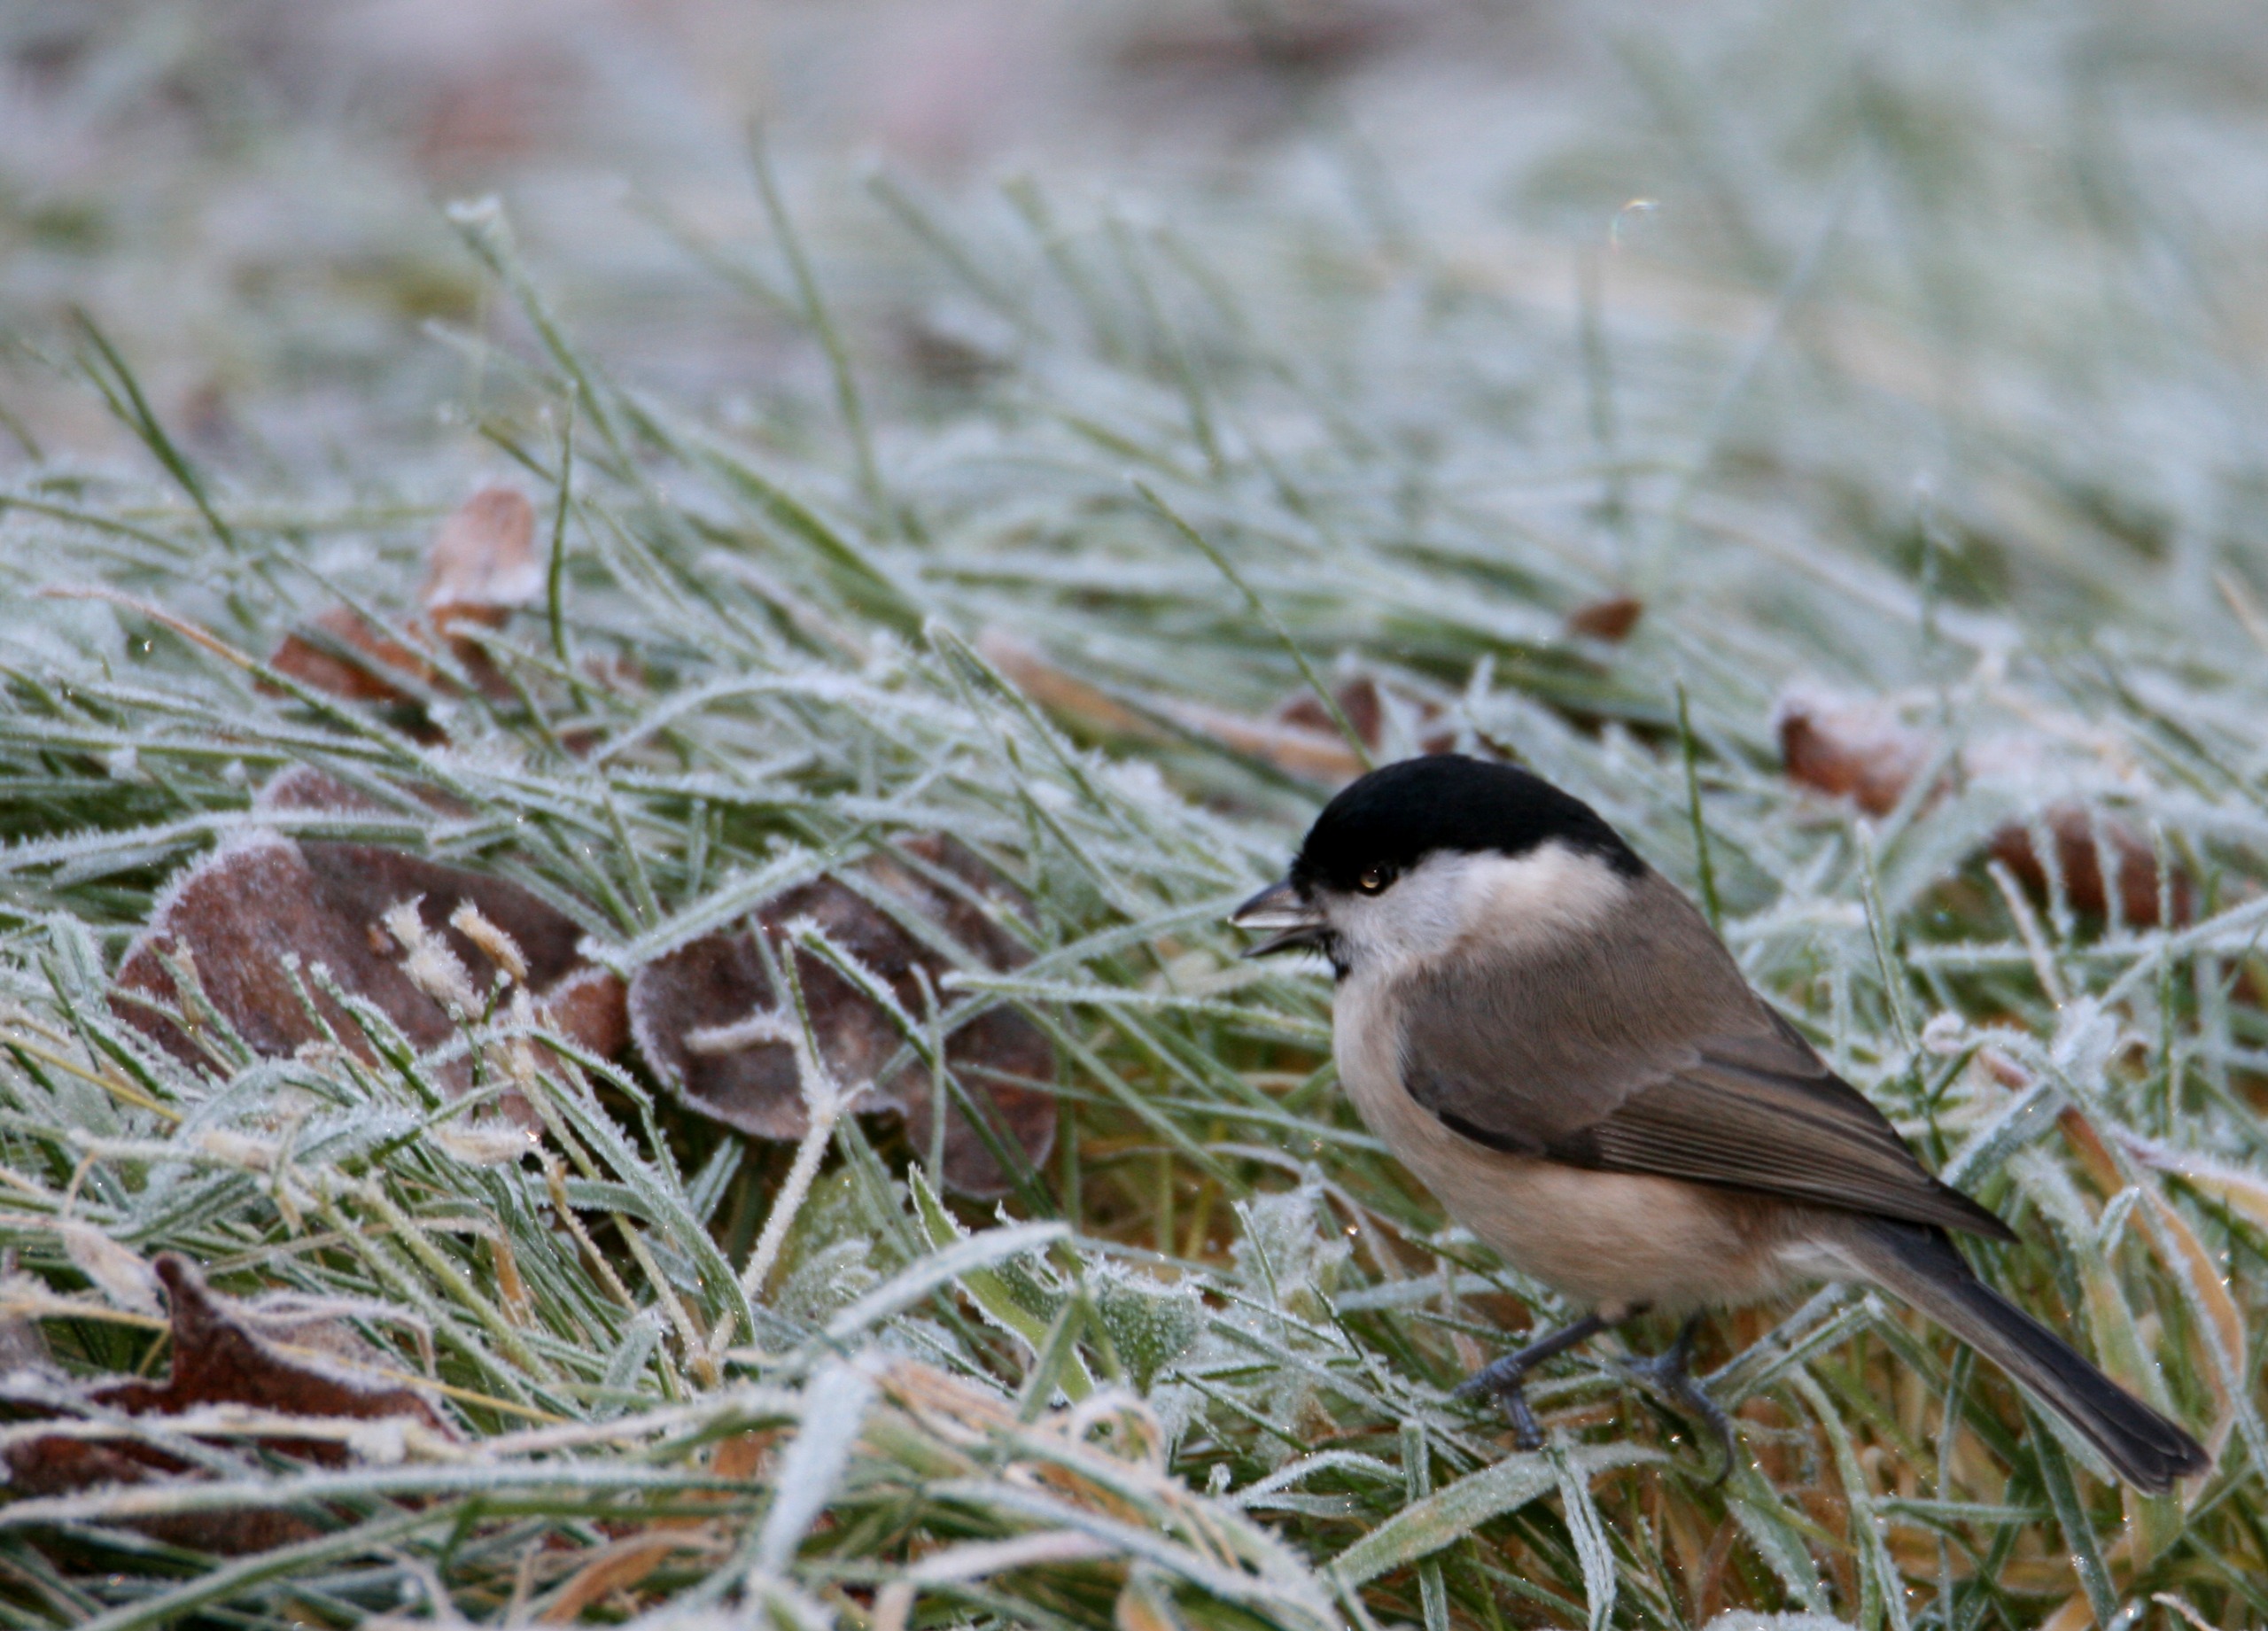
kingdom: Animalia
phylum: Chordata
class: Aves
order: Passeriformes
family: Paridae
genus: Poecile
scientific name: Poecile palustris
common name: Sumpmejse
